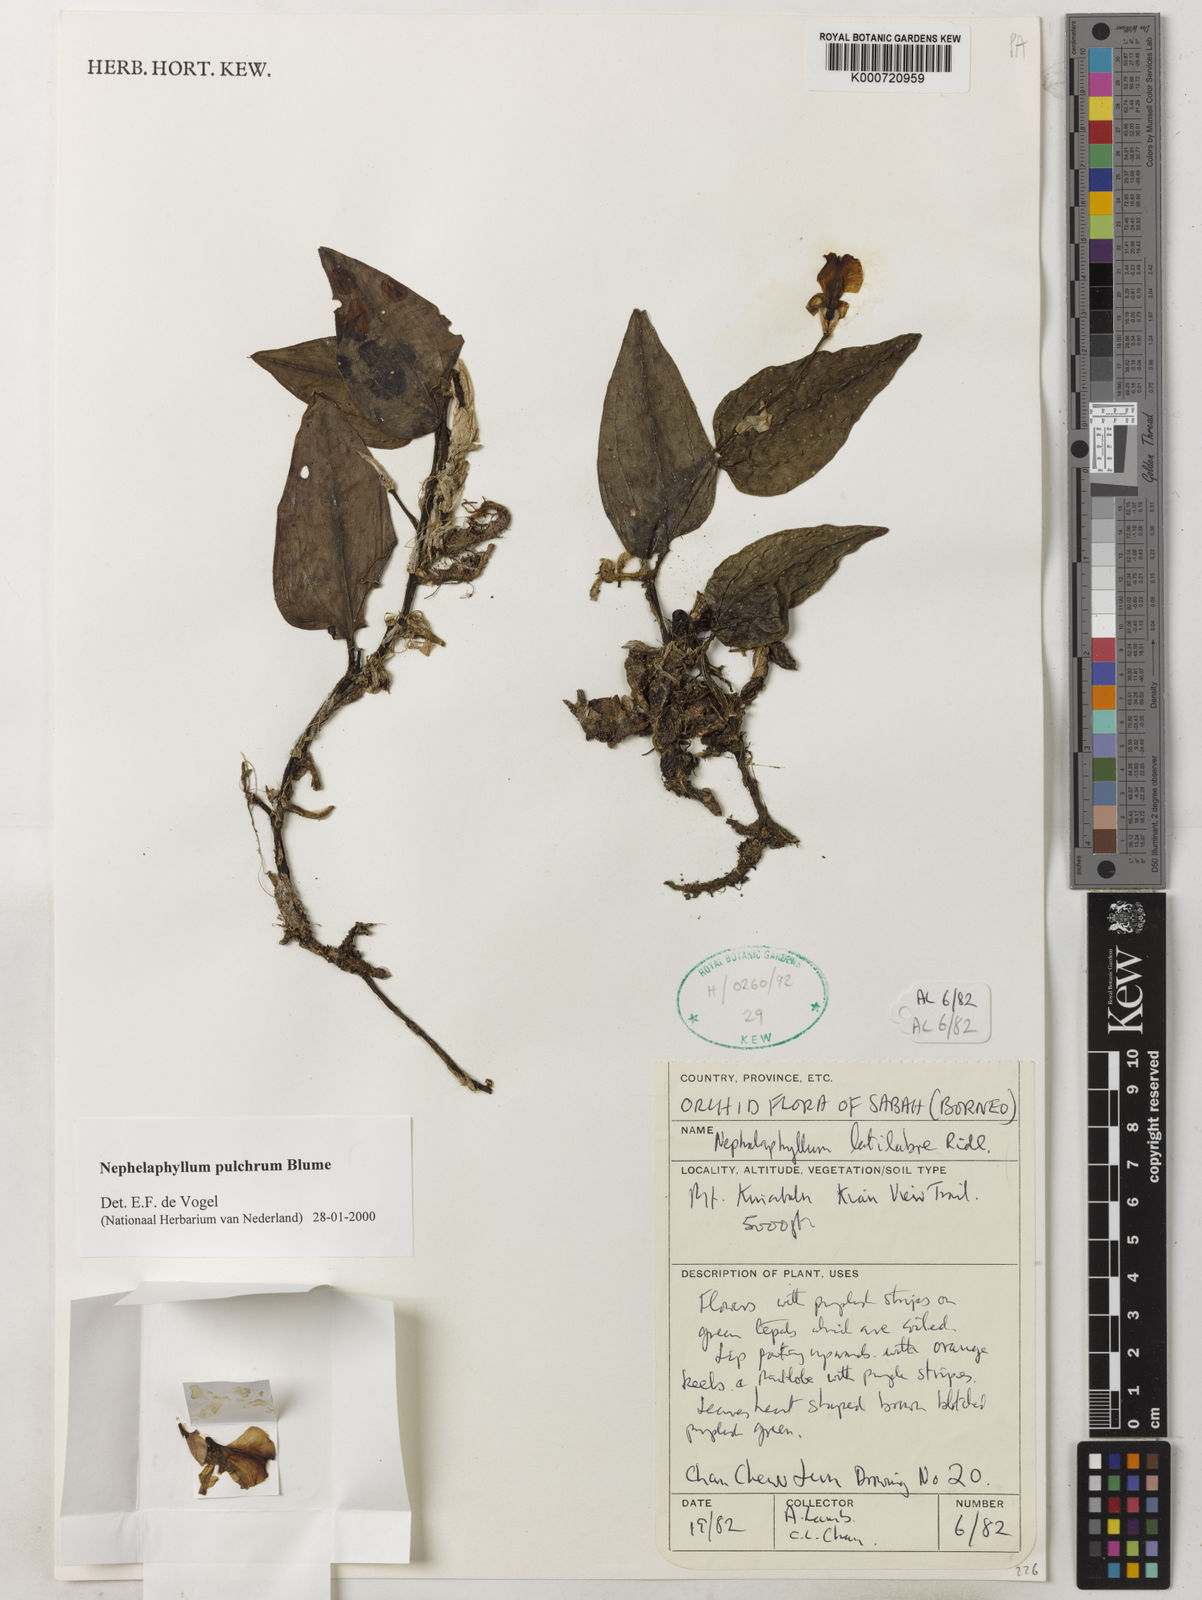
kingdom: Plantae
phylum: Tracheophyta
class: Liliopsida
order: Asparagales
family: Orchidaceae
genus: Nephelaphyllum
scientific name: Nephelaphyllum pulchrum
